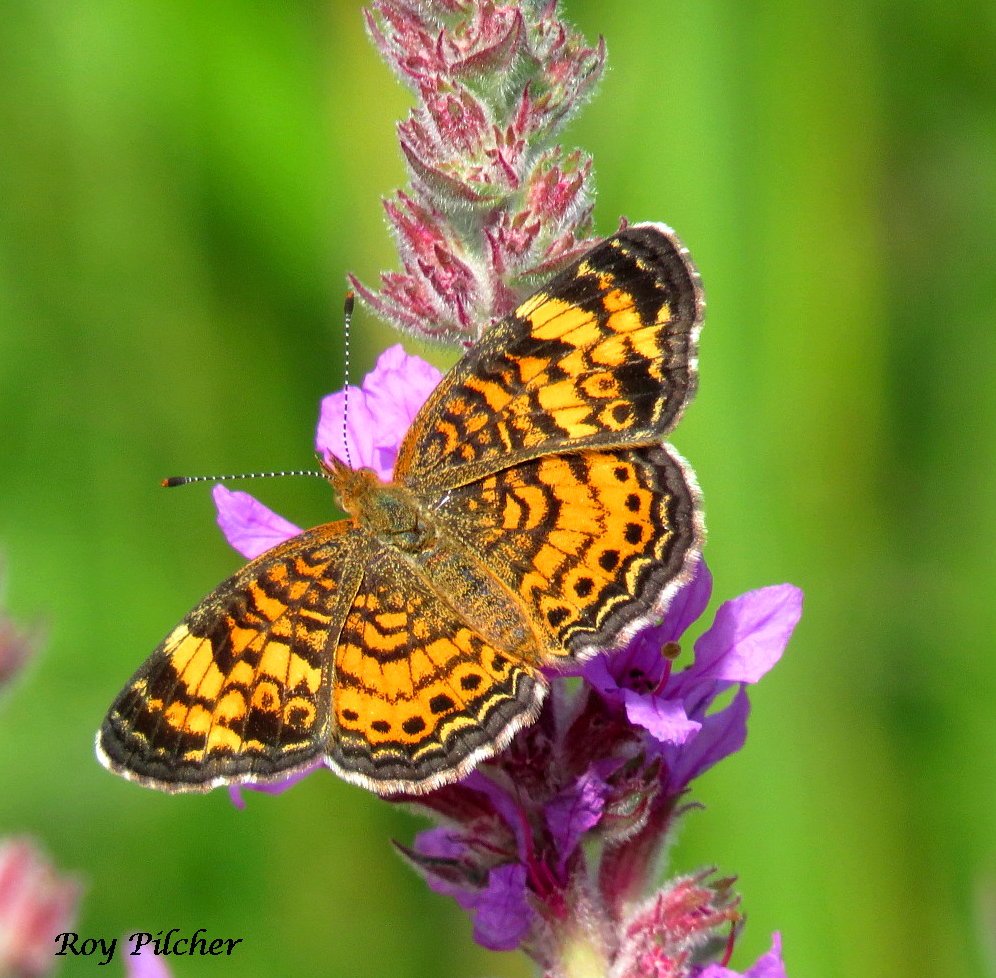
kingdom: Animalia
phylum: Arthropoda
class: Insecta
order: Lepidoptera
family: Nymphalidae
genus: Phyciodes
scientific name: Phyciodes tharos
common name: Pearl Crescent
